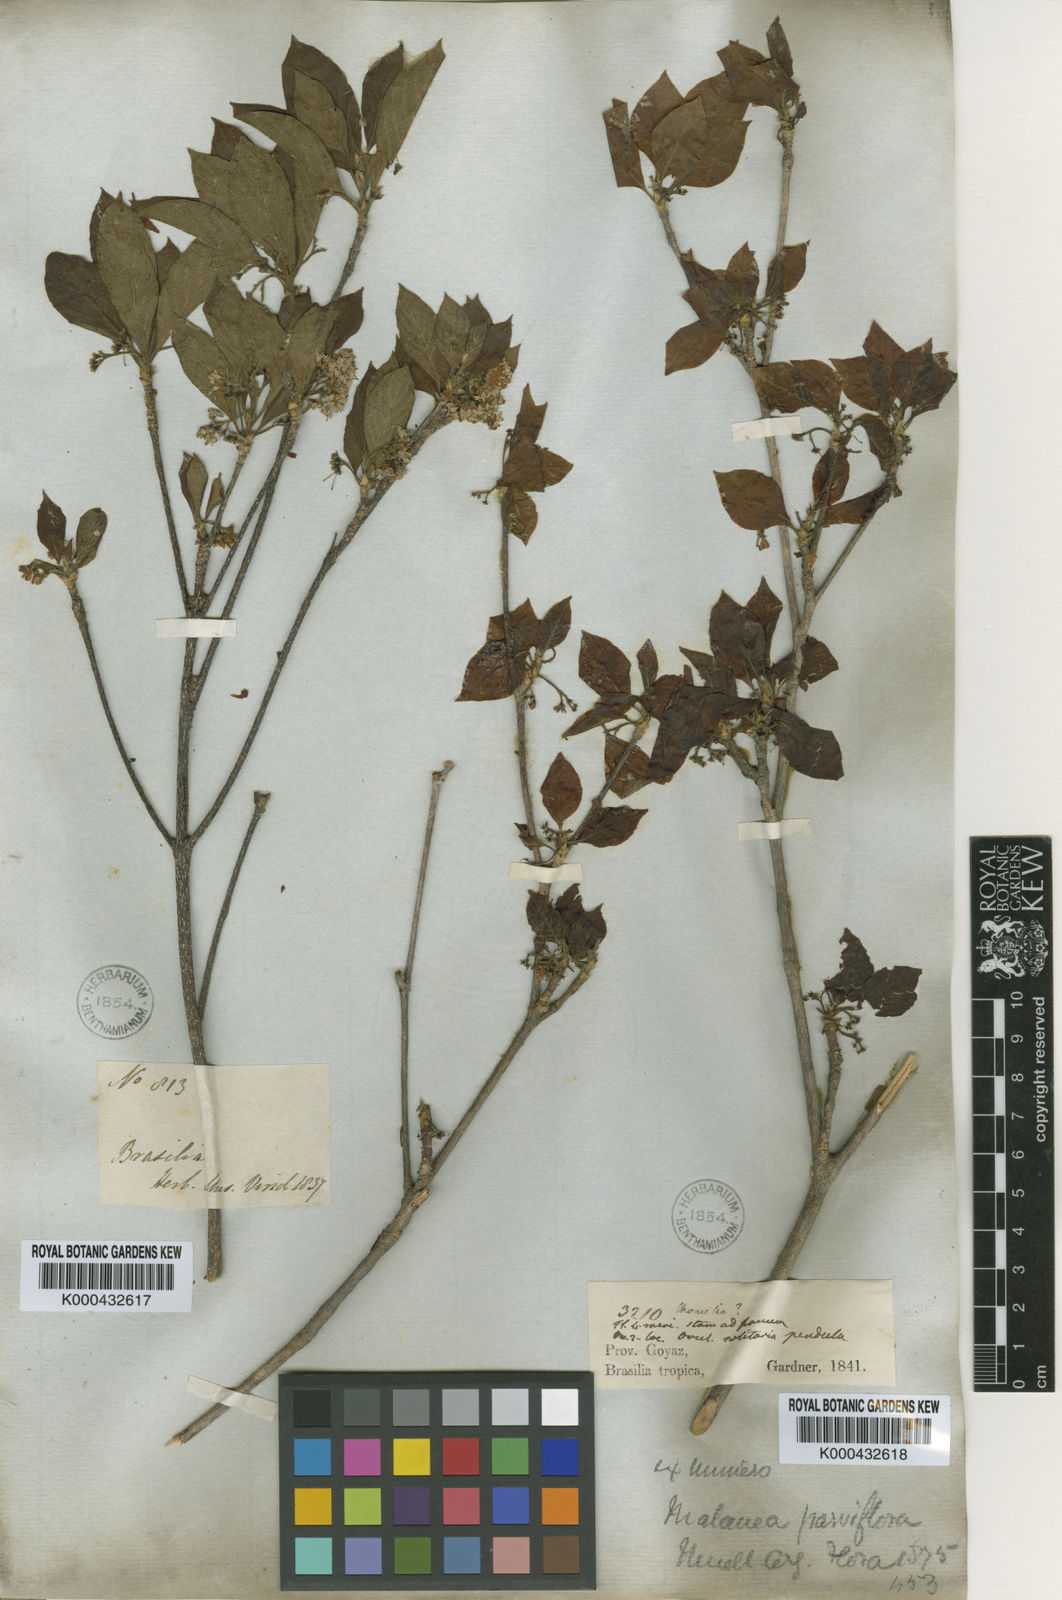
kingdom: Plantae
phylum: Tracheophyta
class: Magnoliopsida
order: Gentianales
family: Rubiaceae
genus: Chomelia
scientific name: Chomelia
